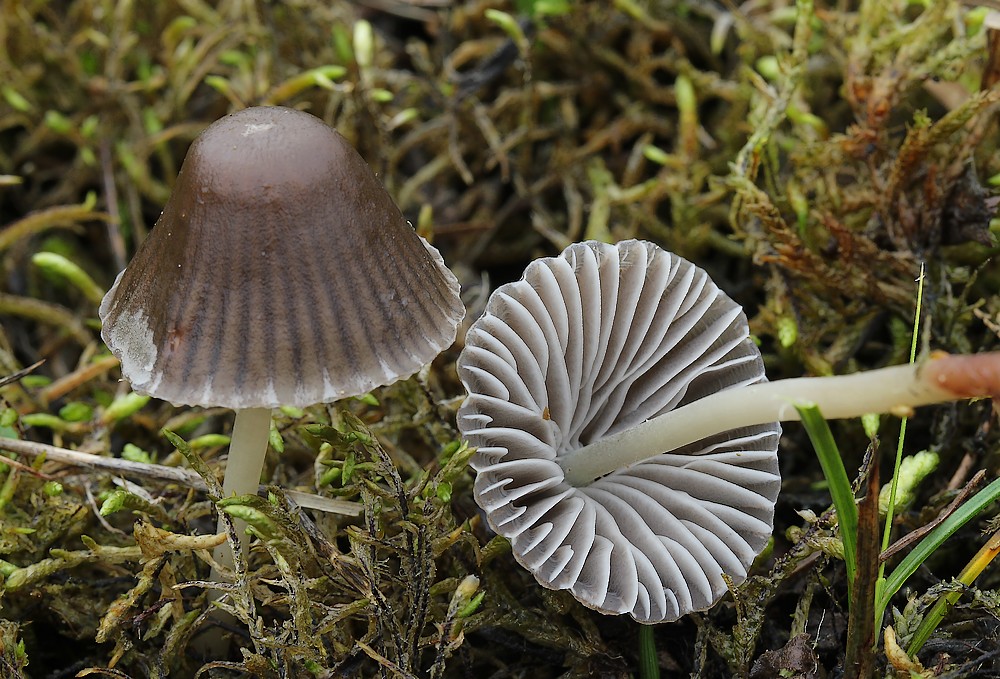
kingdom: Fungi
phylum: Basidiomycota
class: Agaricomycetes
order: Agaricales
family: Mycenaceae
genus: Mycena
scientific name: Mycena epipterygia
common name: Yellowleg bonnet
